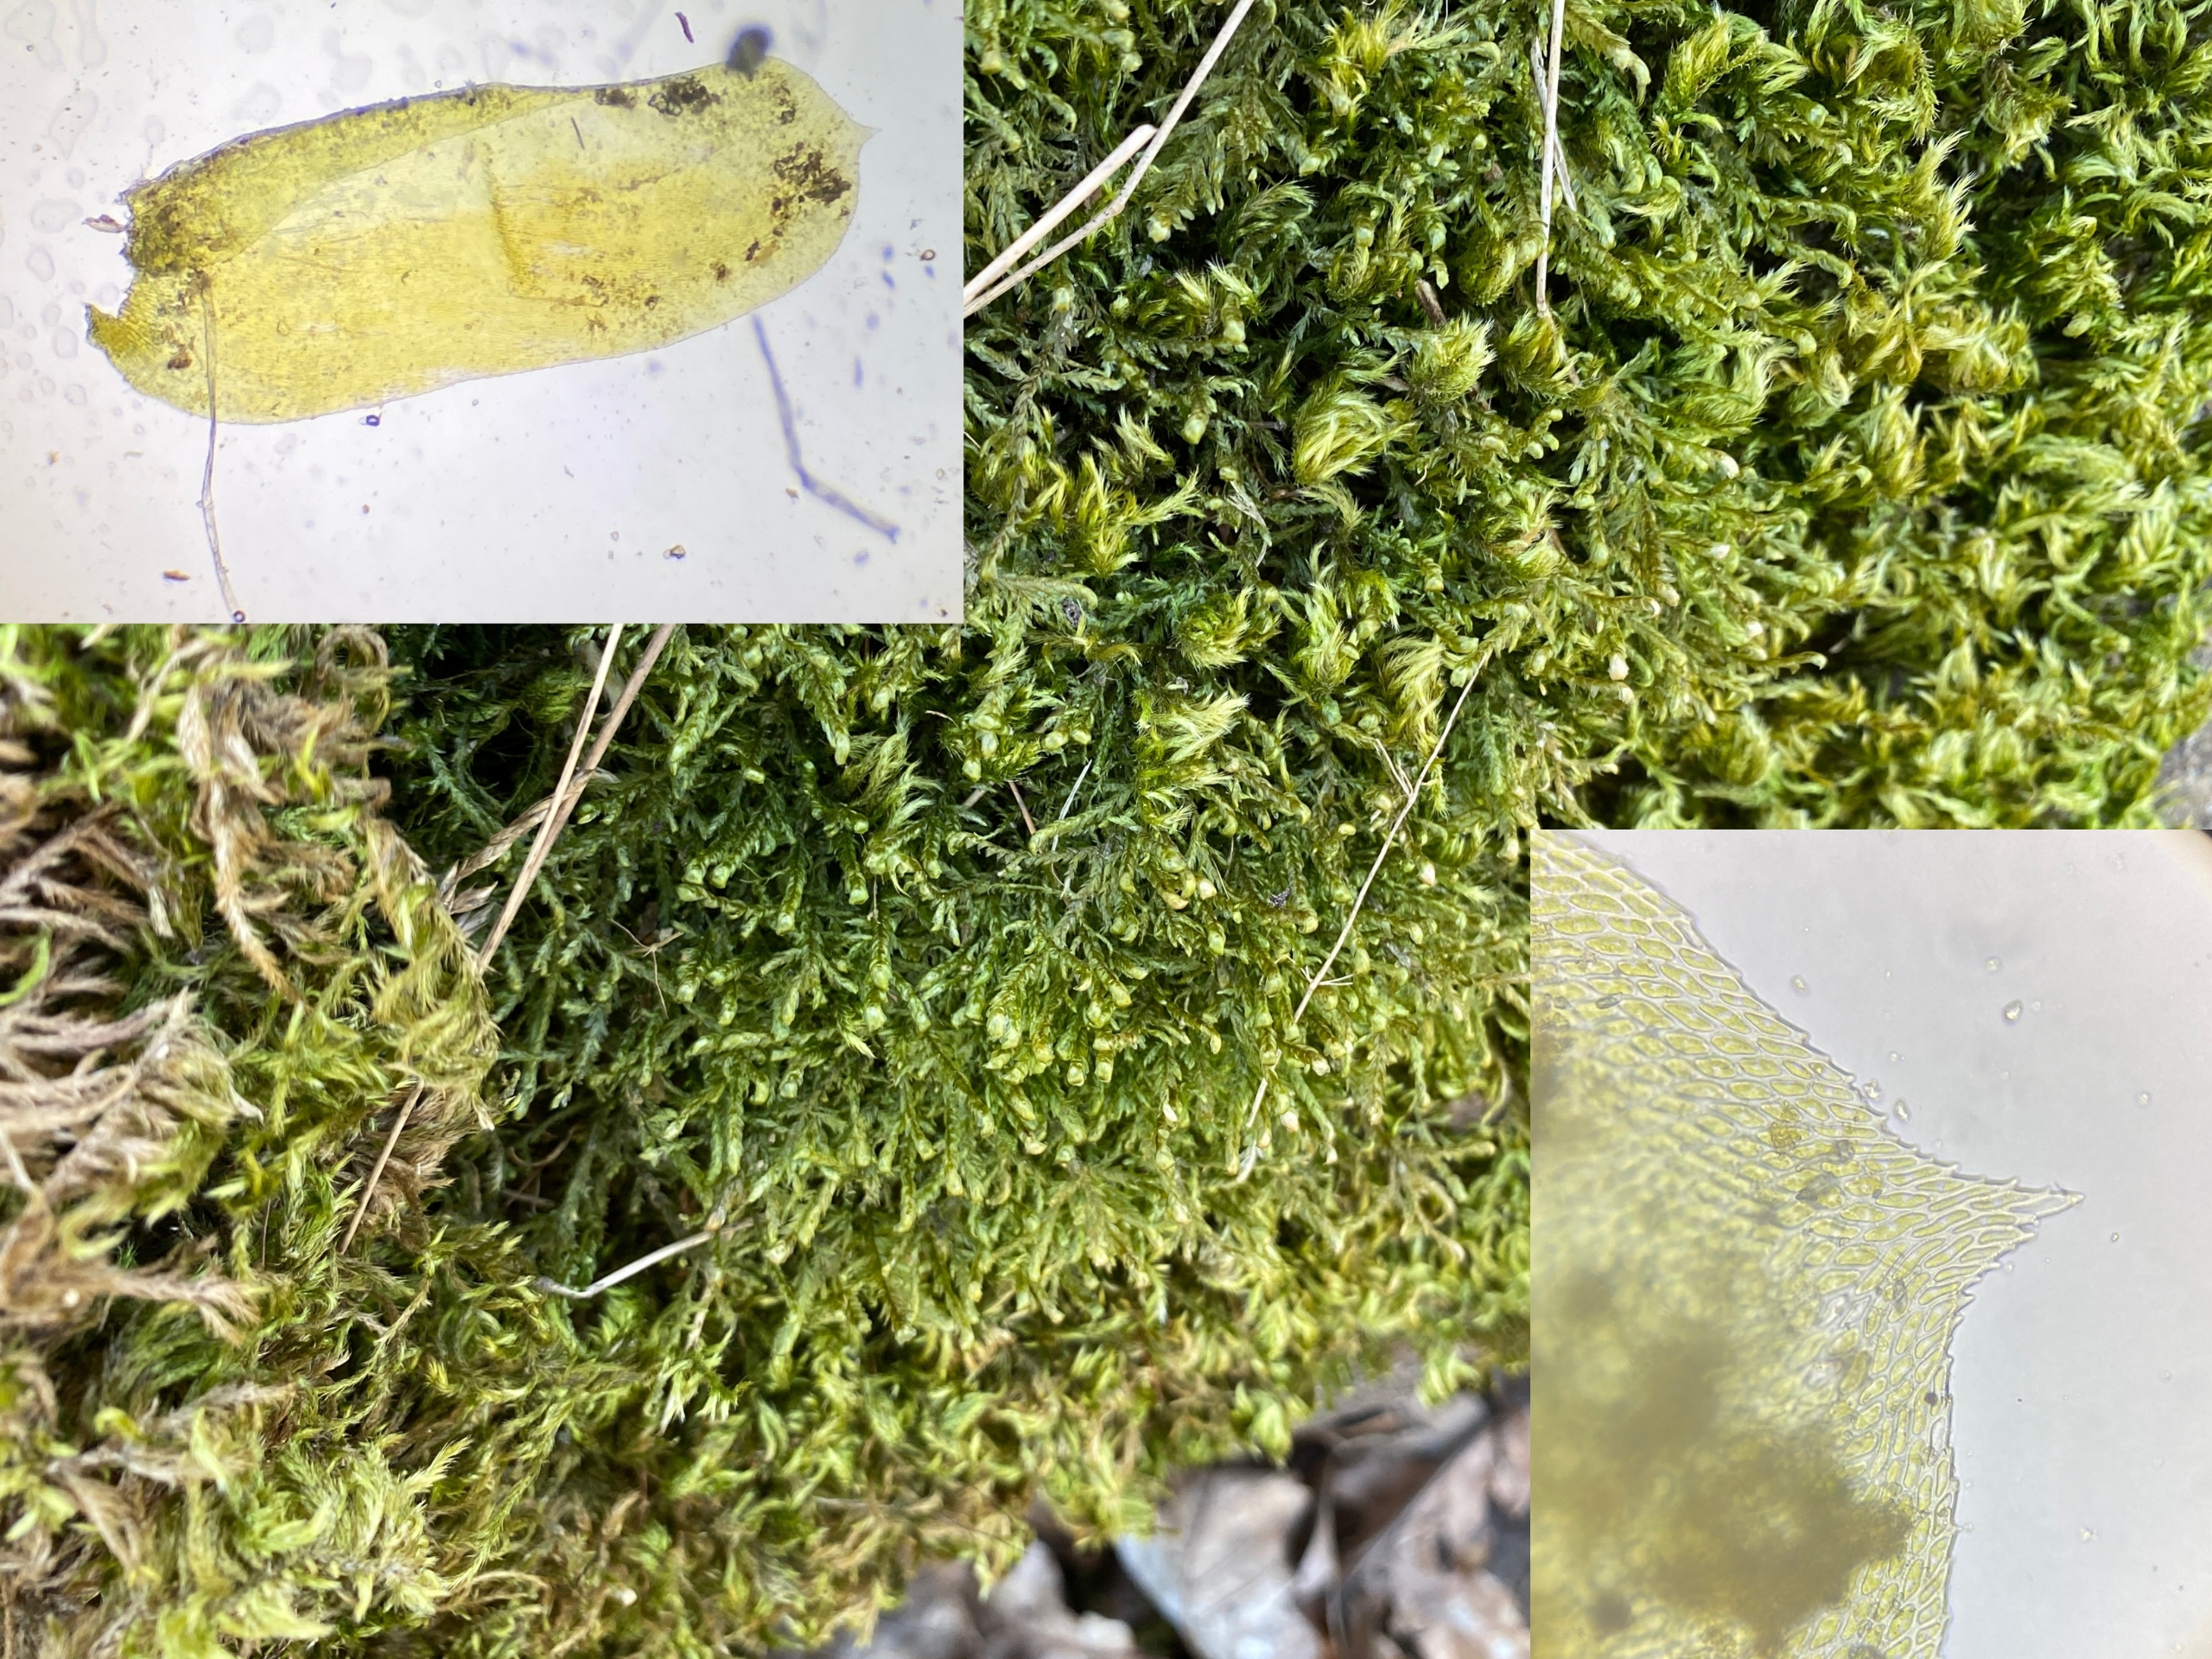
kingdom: Plantae
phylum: Bryophyta
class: Bryopsida
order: Hypnales
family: Neckeraceae
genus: Alleniella
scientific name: Alleniella complanata
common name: Almindelig fladmos
